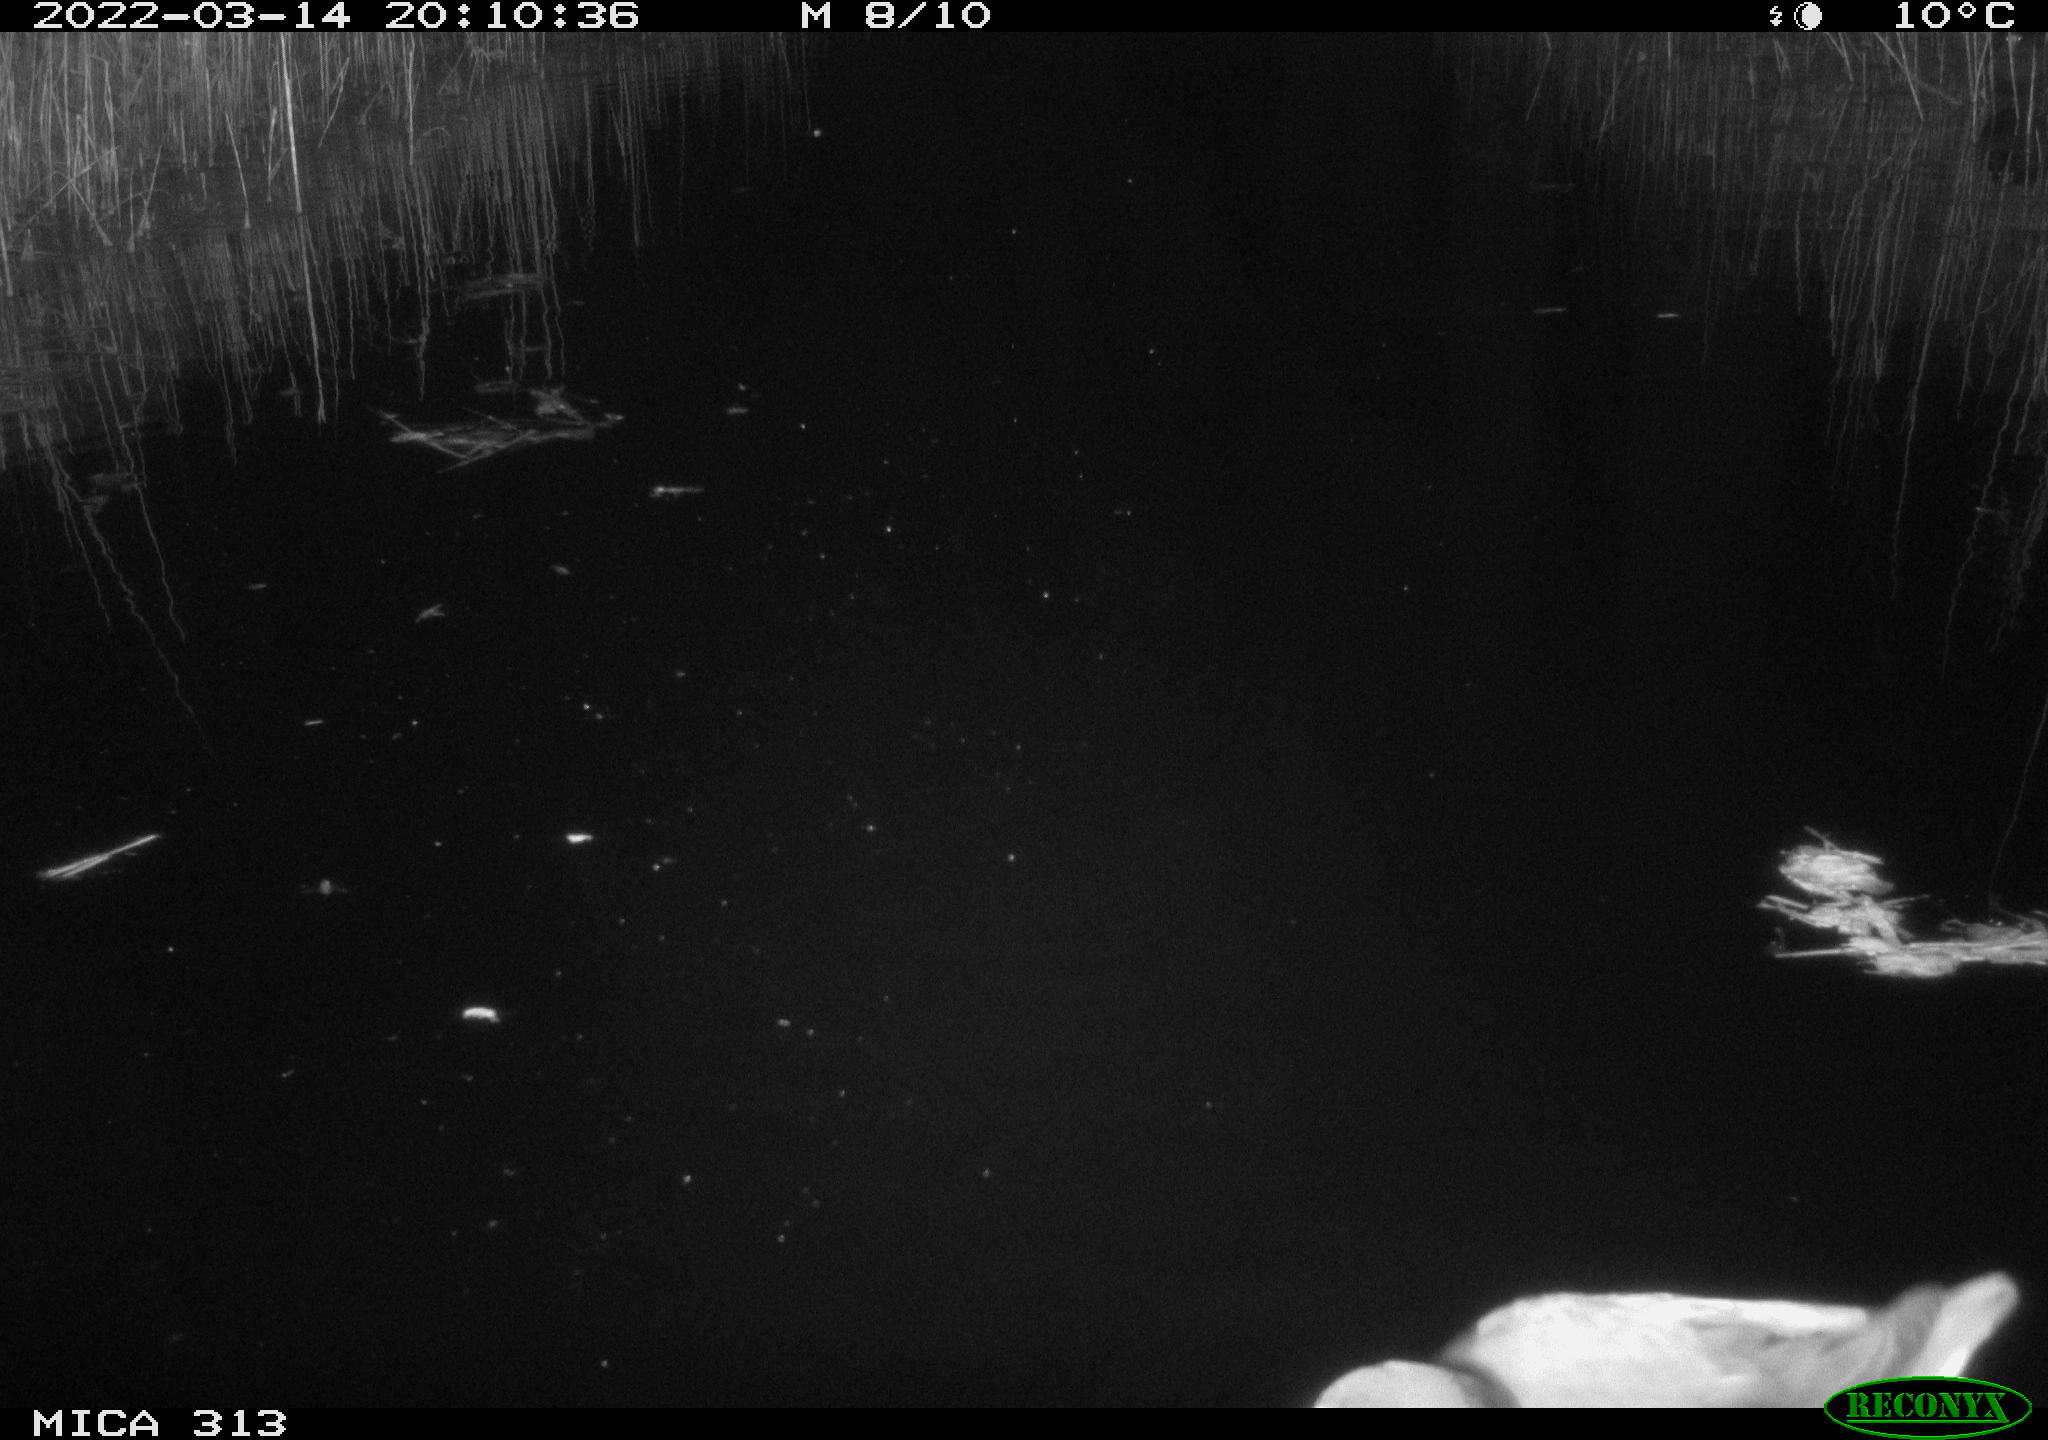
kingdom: Animalia
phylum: Chordata
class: Aves
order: Gruiformes
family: Rallidae
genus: Gallinula
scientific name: Gallinula chloropus
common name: Common moorhen
